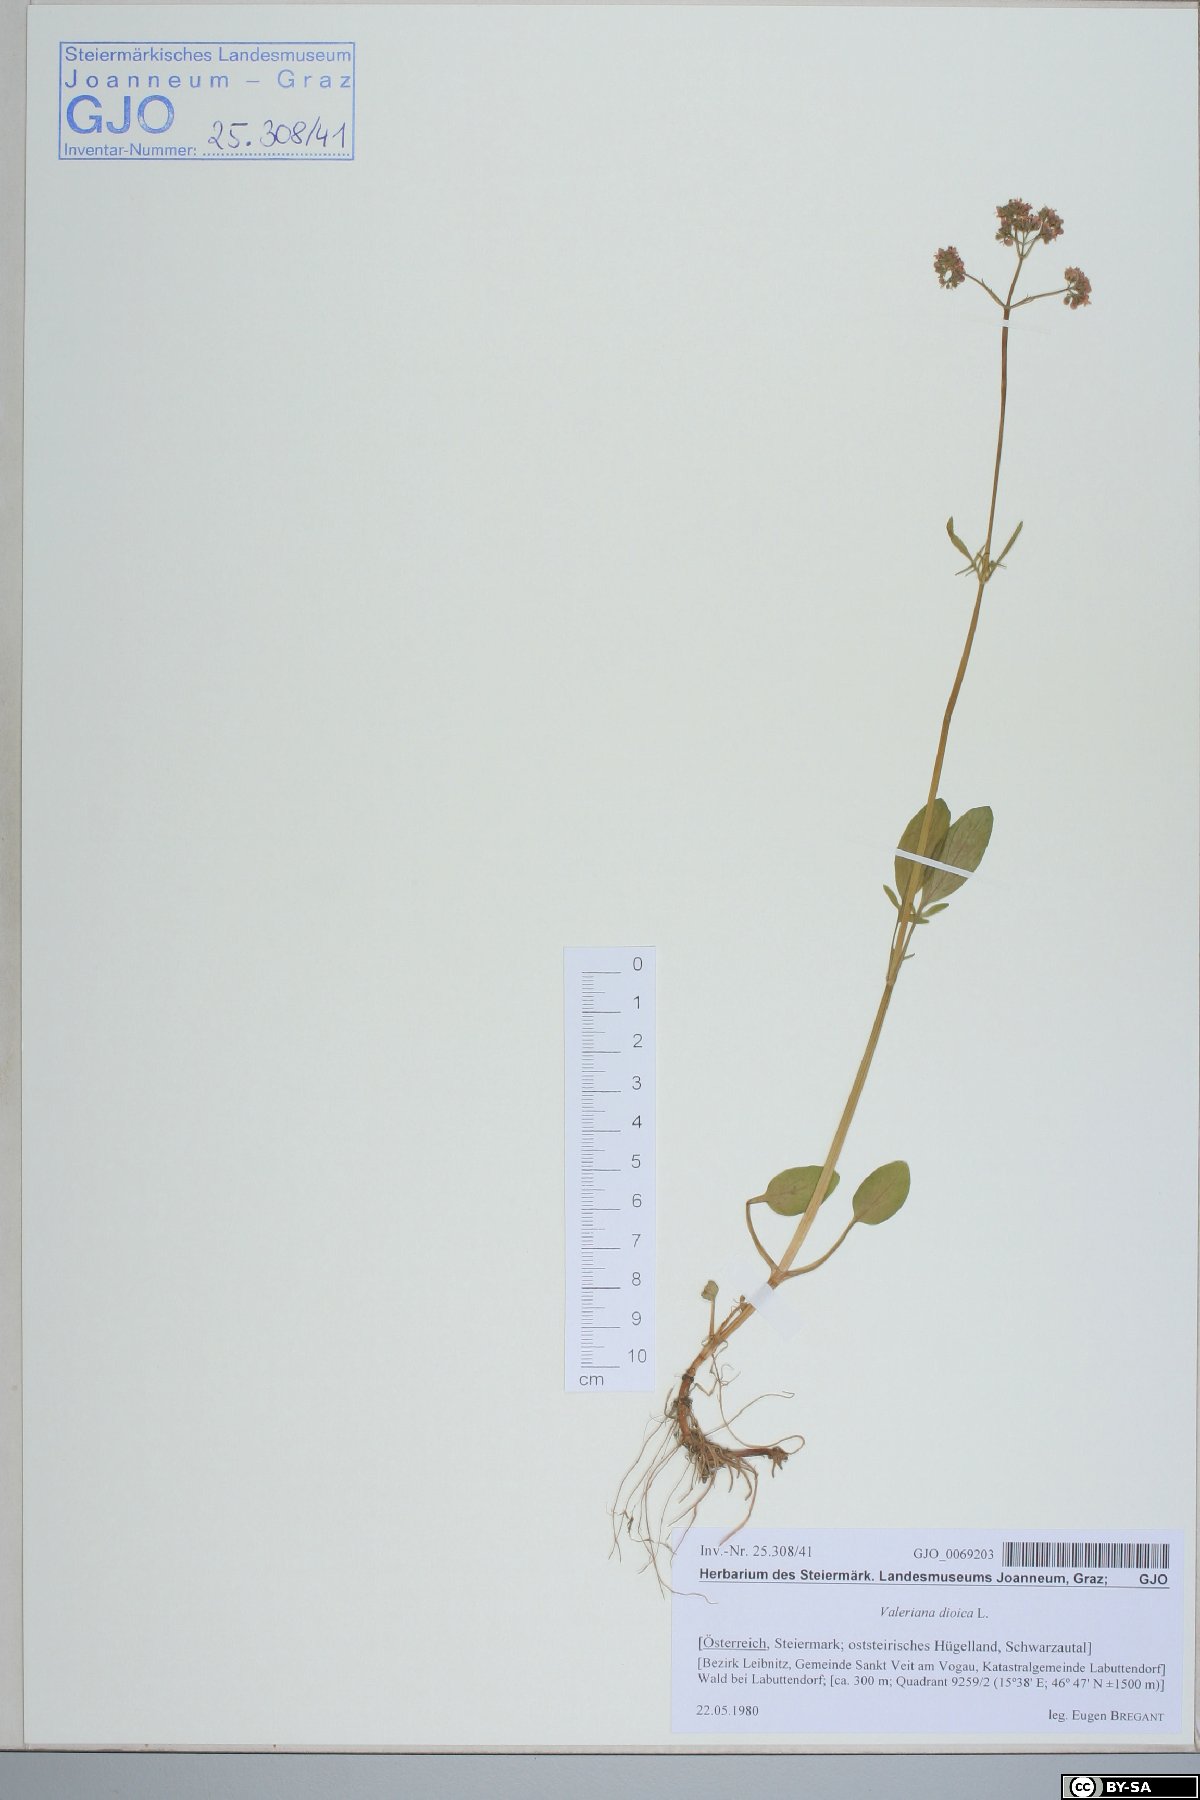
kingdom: Plantae
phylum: Tracheophyta
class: Magnoliopsida
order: Dipsacales
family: Caprifoliaceae
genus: Valeriana
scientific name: Valeriana dioica
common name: Marsh valerian
